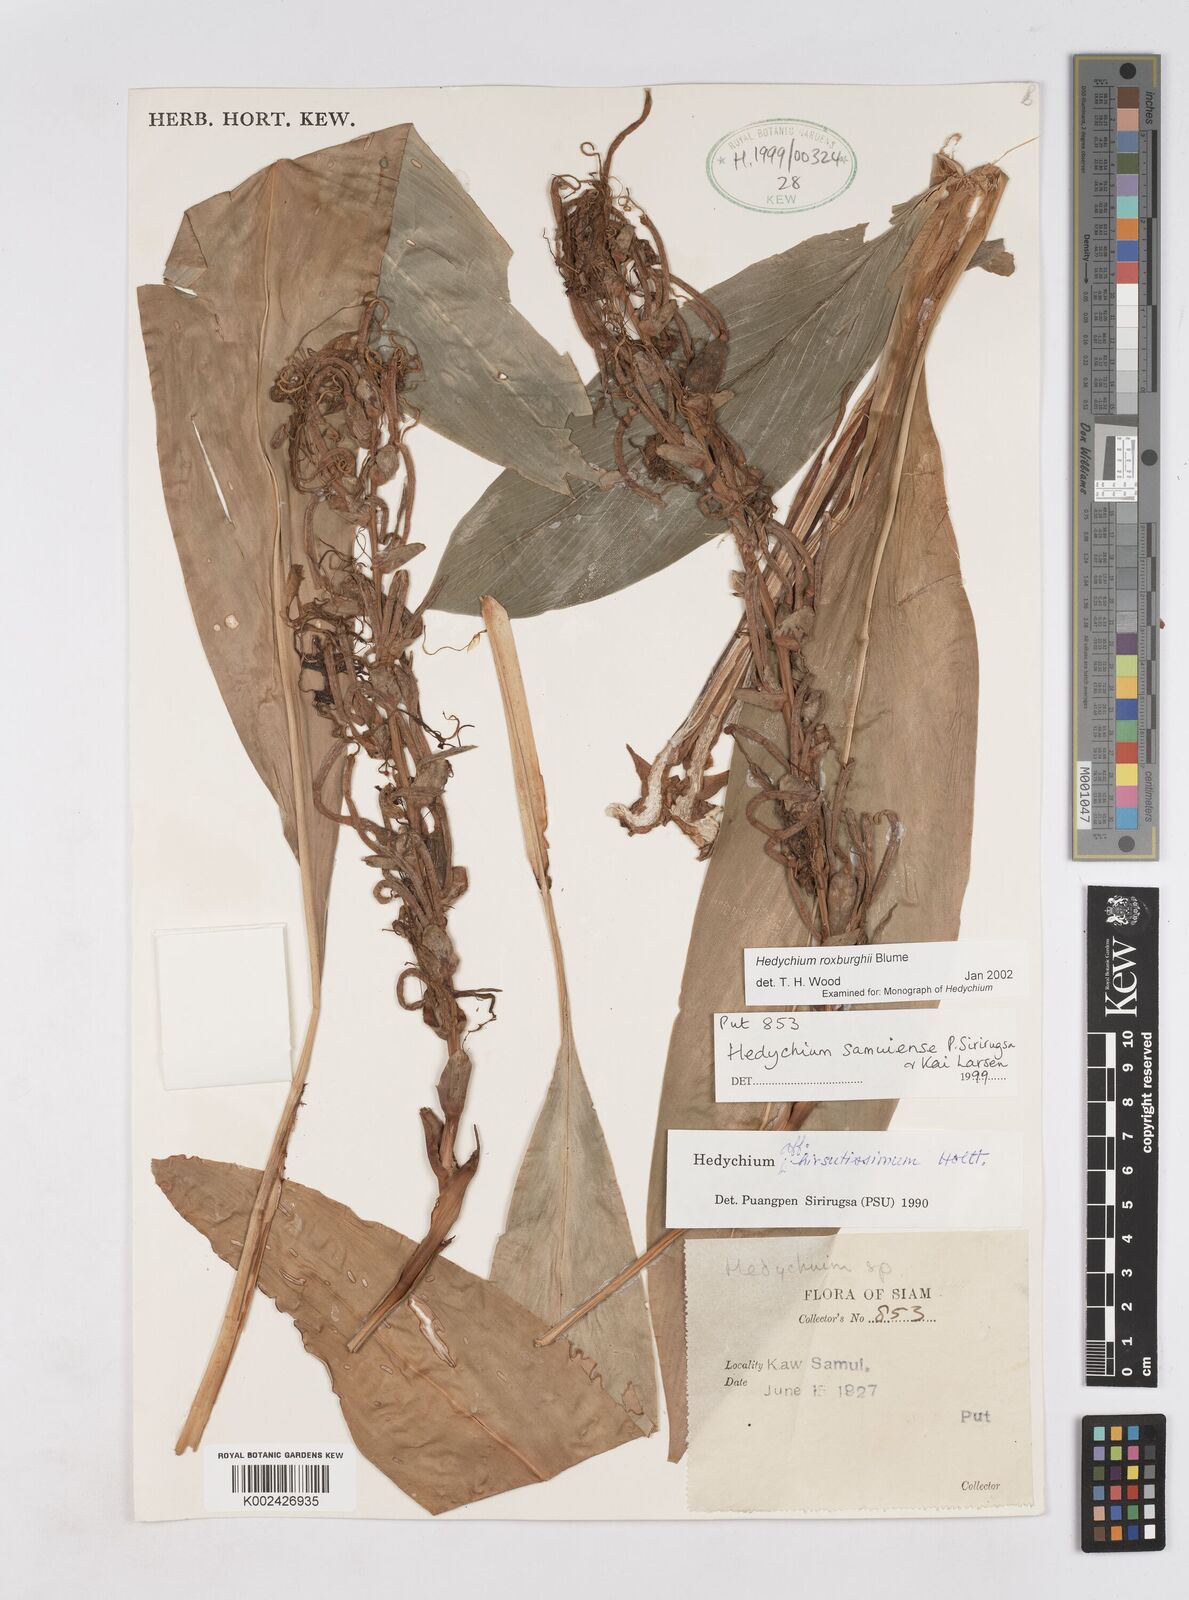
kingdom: Plantae
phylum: Tracheophyta
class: Liliopsida
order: Zingiberales
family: Zingiberaceae
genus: Hedychium
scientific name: Hedychium roxburghii
